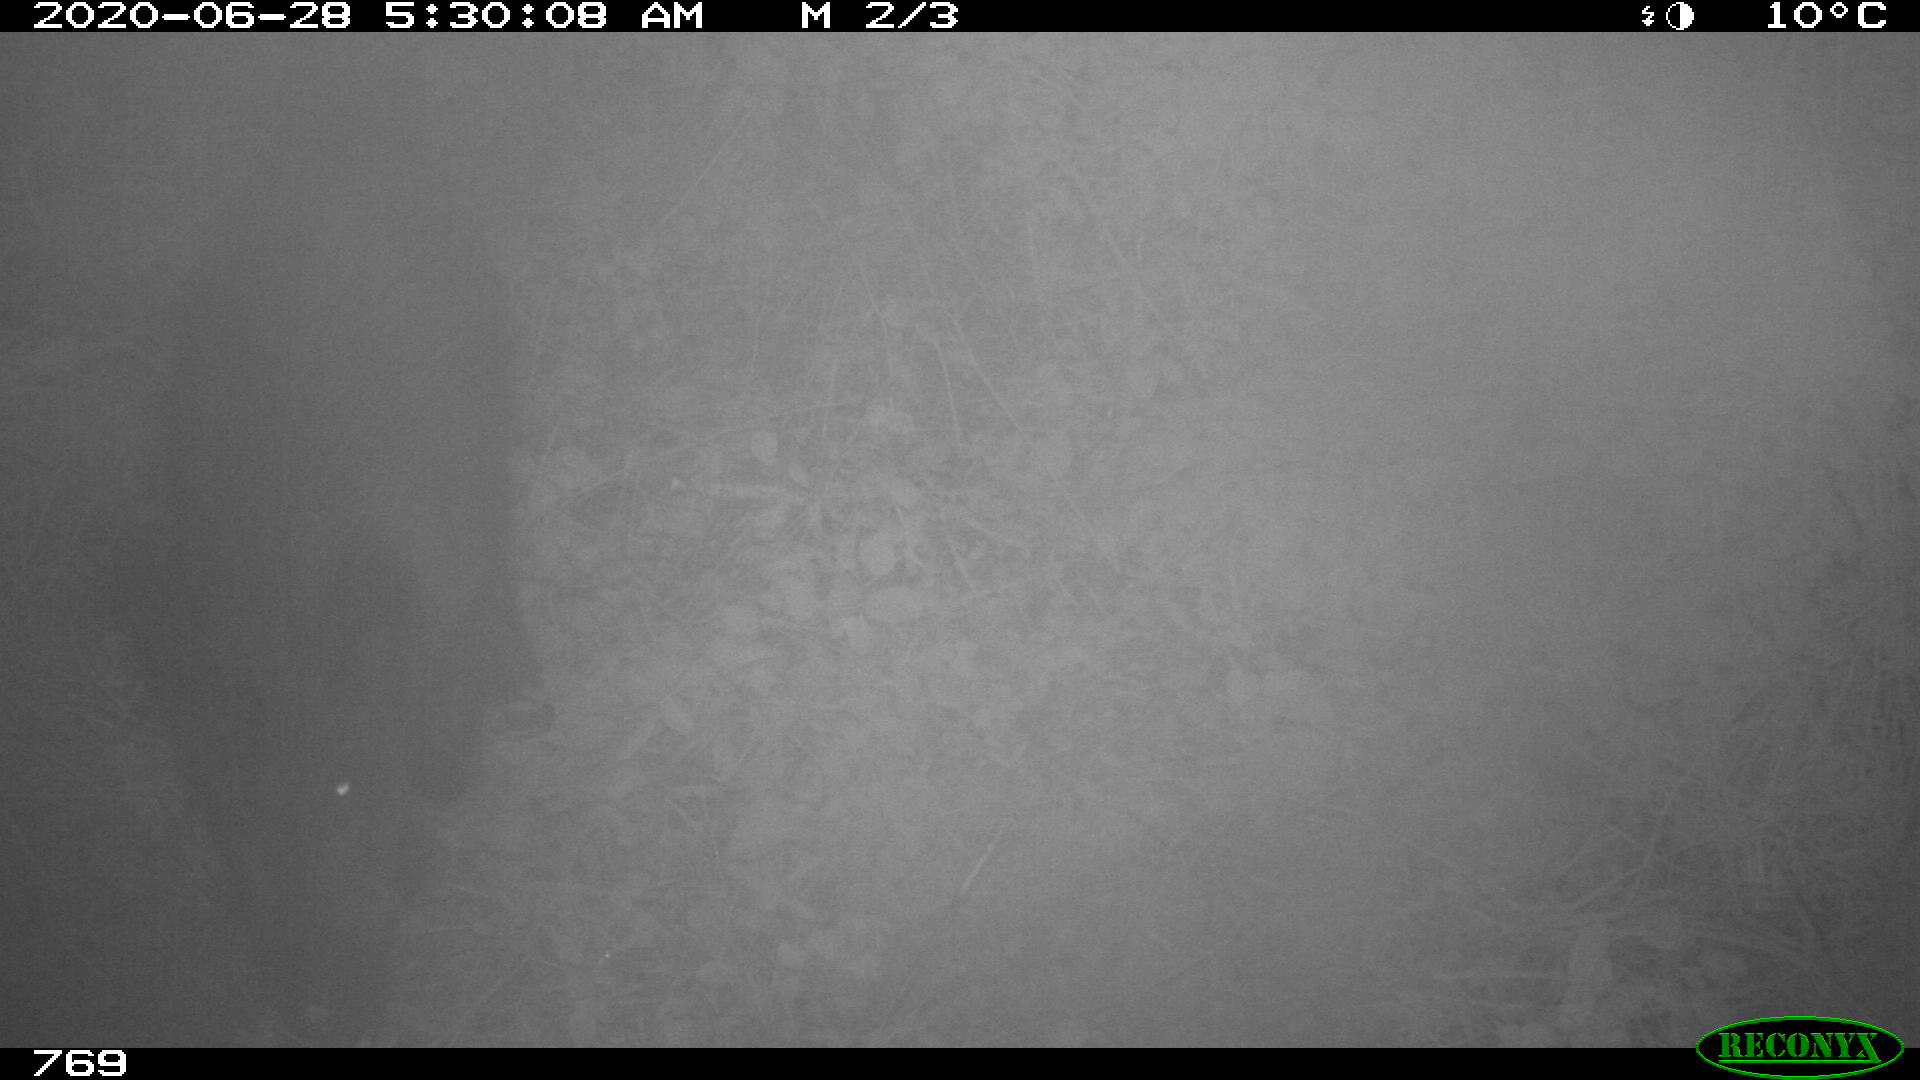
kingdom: Animalia
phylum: Chordata
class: Mammalia
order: Artiodactyla
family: Suidae
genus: Sus
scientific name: Sus scrofa
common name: Wild boar
